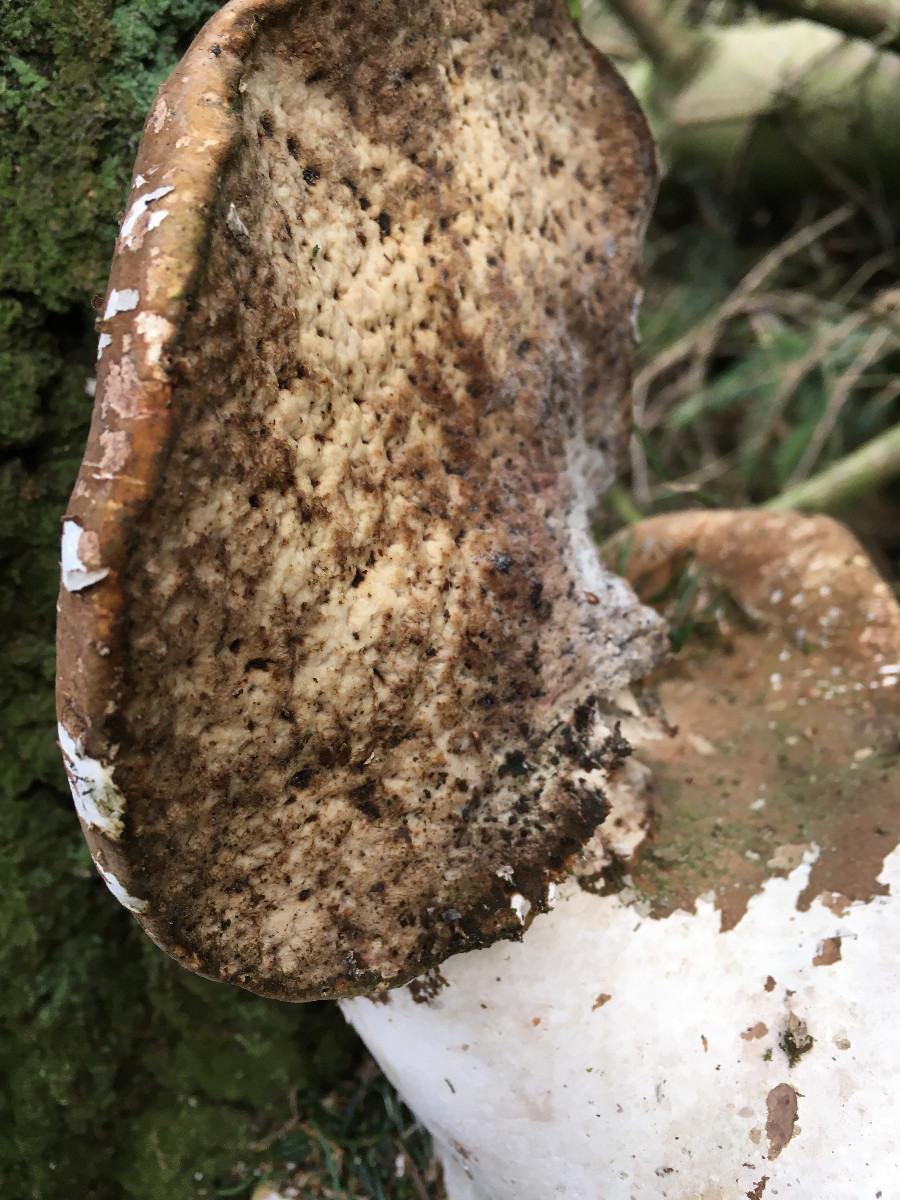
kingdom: Fungi
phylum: Basidiomycota
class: Agaricomycetes
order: Polyporales
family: Fomitopsidaceae
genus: Fomitopsis
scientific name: Fomitopsis betulina
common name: birkeporesvamp
